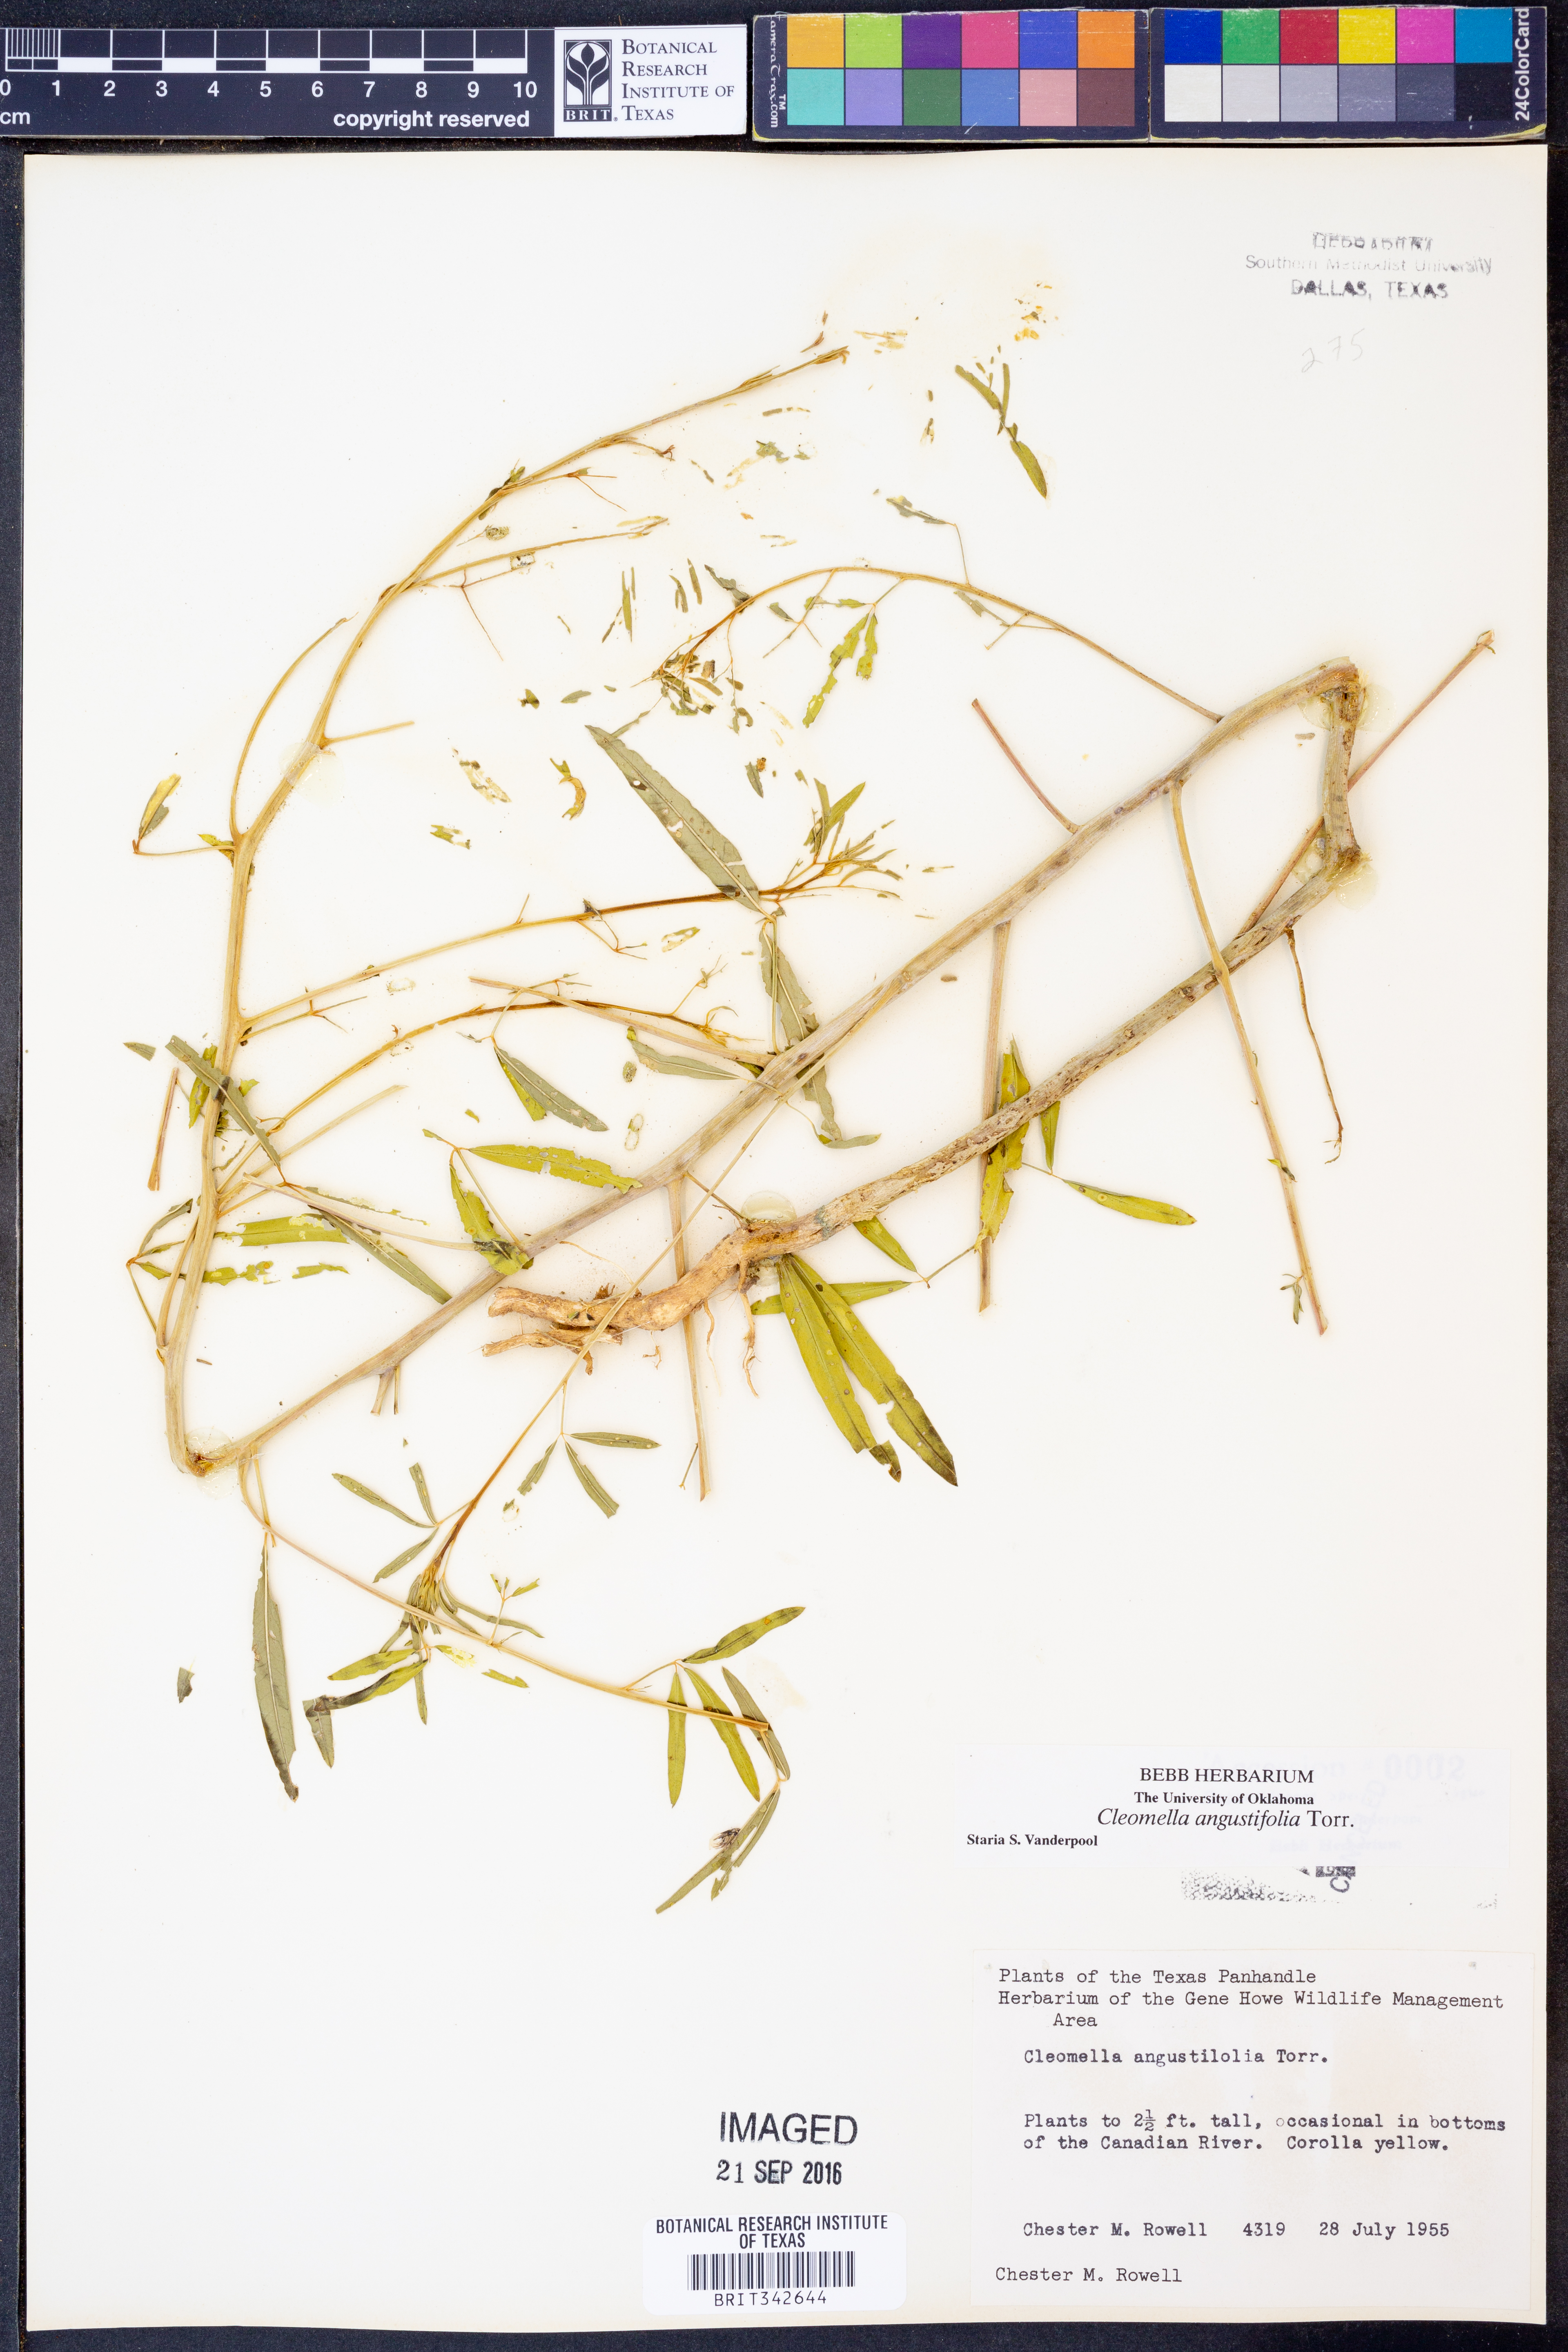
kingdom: Plantae
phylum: Tracheophyta
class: Magnoliopsida
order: Brassicales
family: Cleomaceae
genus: Cleomella
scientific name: Cleomella angustifolia
